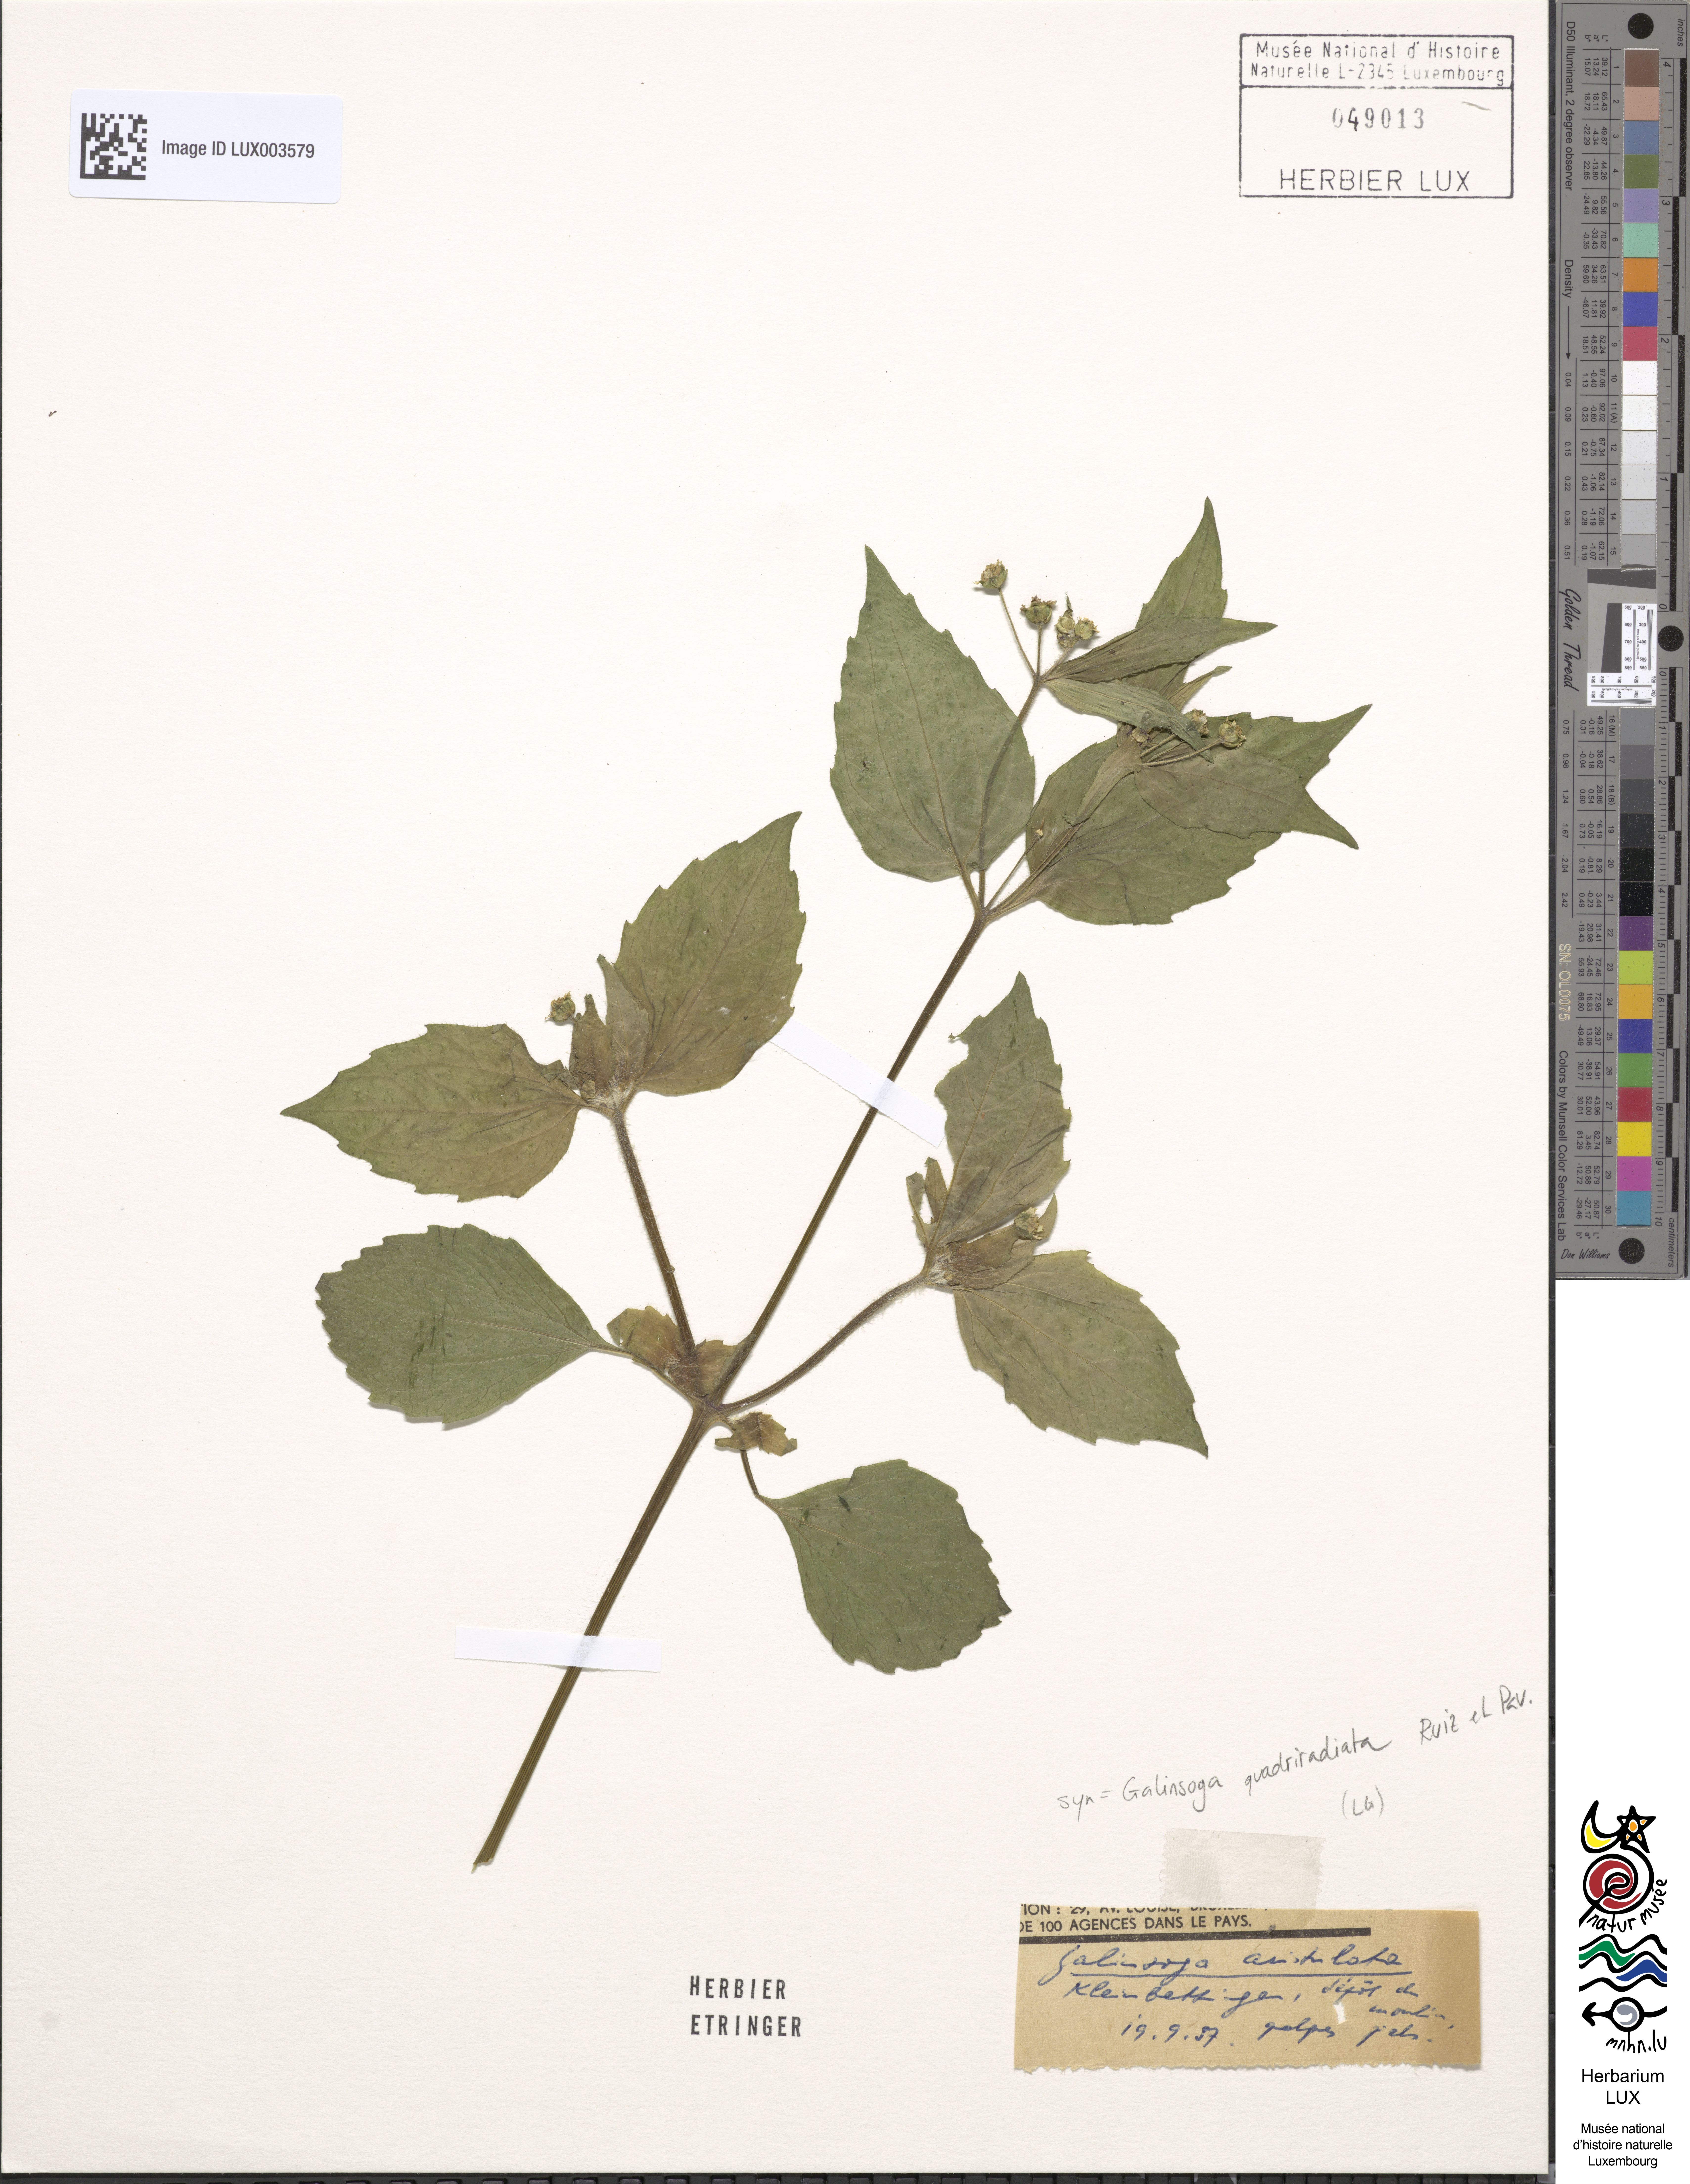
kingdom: Plantae
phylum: Tracheophyta
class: Magnoliopsida
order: Asterales
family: Asteraceae
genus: Galinsoga
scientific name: Galinsoga quadriradiata
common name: Shaggy soldier
